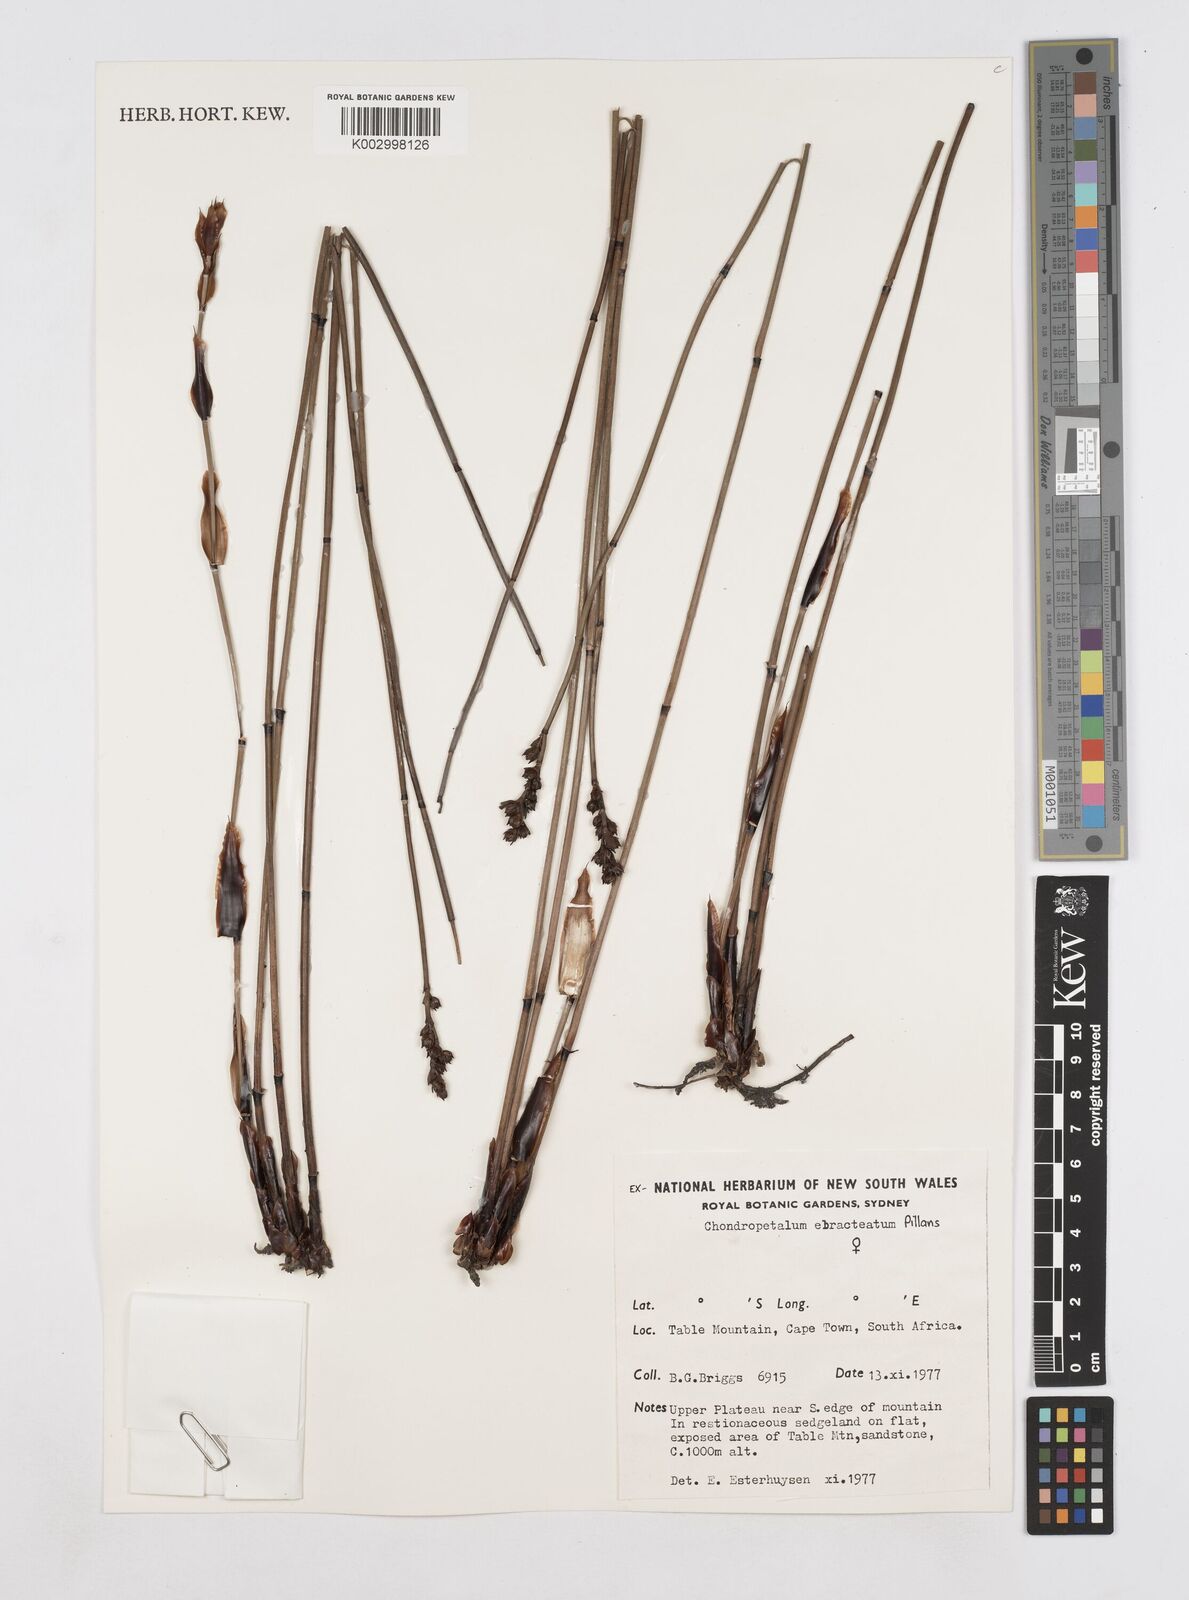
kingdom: Plantae
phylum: Tracheophyta
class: Liliopsida
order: Poales
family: Restionaceae
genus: Elegia
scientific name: Elegia ebracteata
